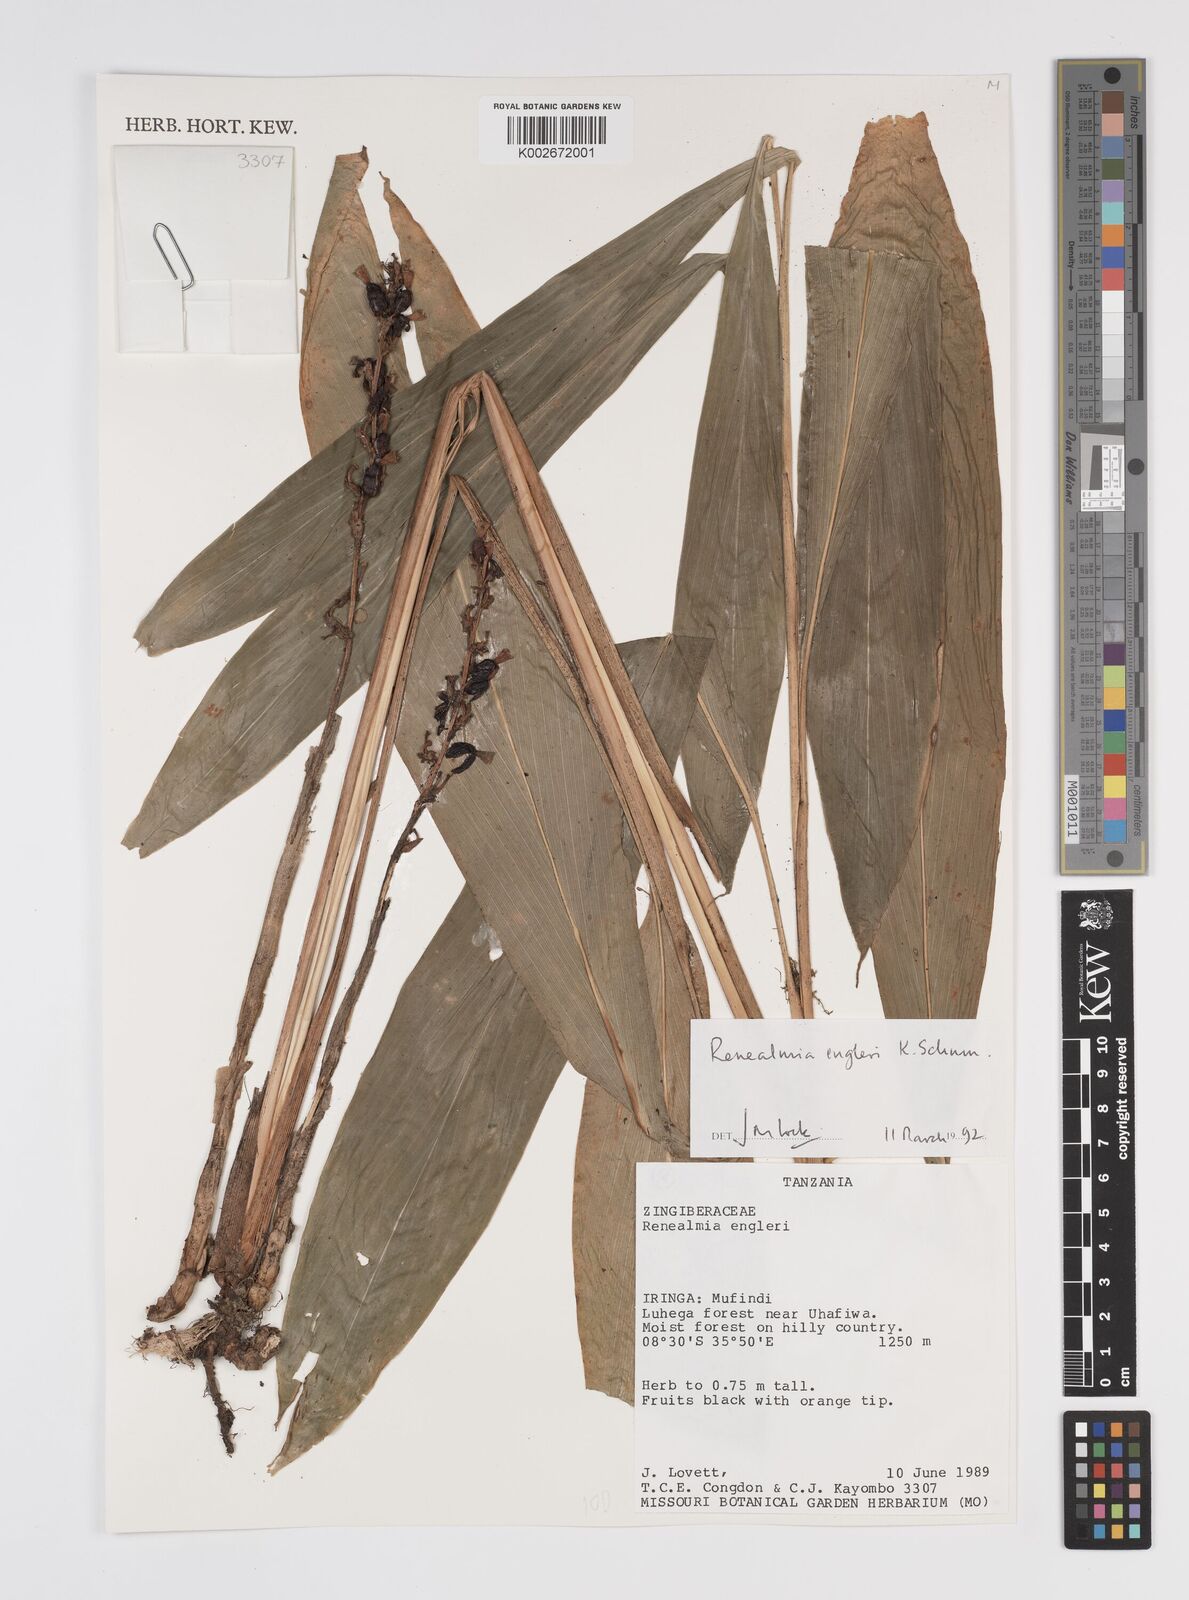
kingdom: Plantae
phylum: Tracheophyta
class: Liliopsida
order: Zingiberales
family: Zingiberaceae
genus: Renealmia
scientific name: Renealmia engleri
